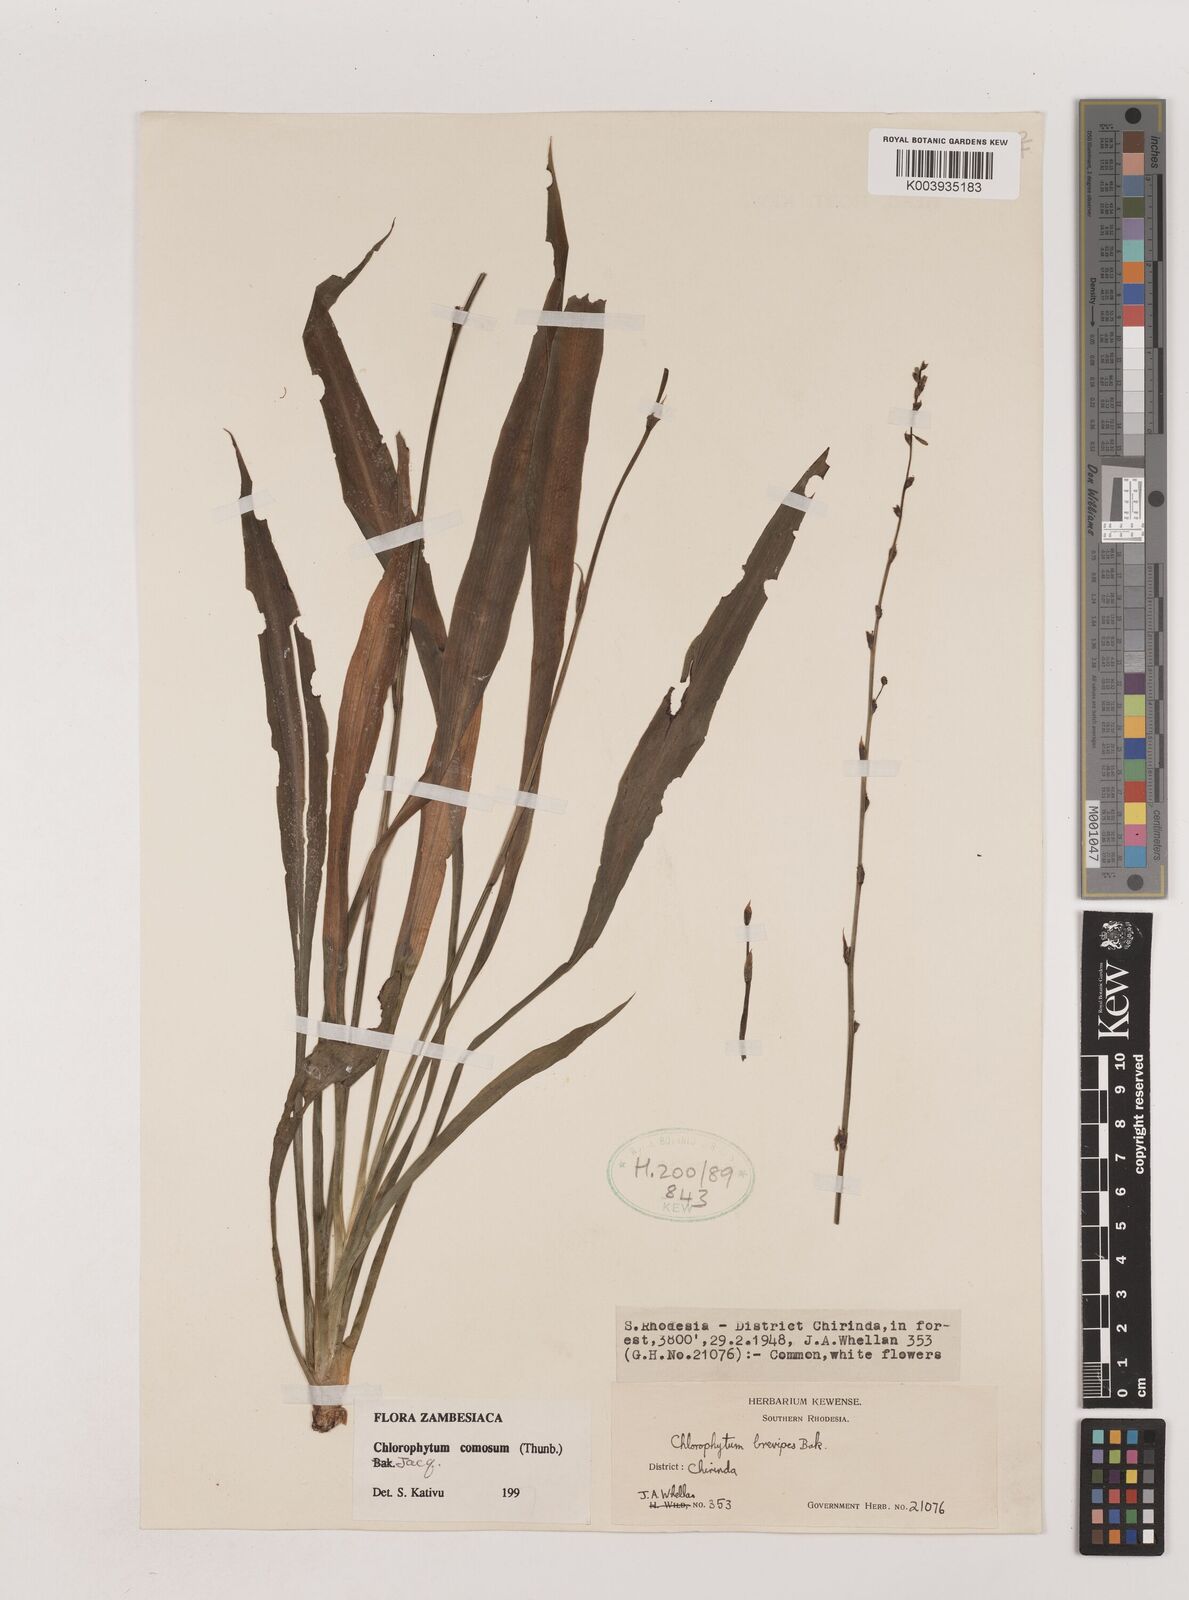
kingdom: Plantae
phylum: Tracheophyta
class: Liliopsida
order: Asparagales
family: Asparagaceae
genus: Chlorophytum
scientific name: Chlorophytum comosum
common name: Spider plant
